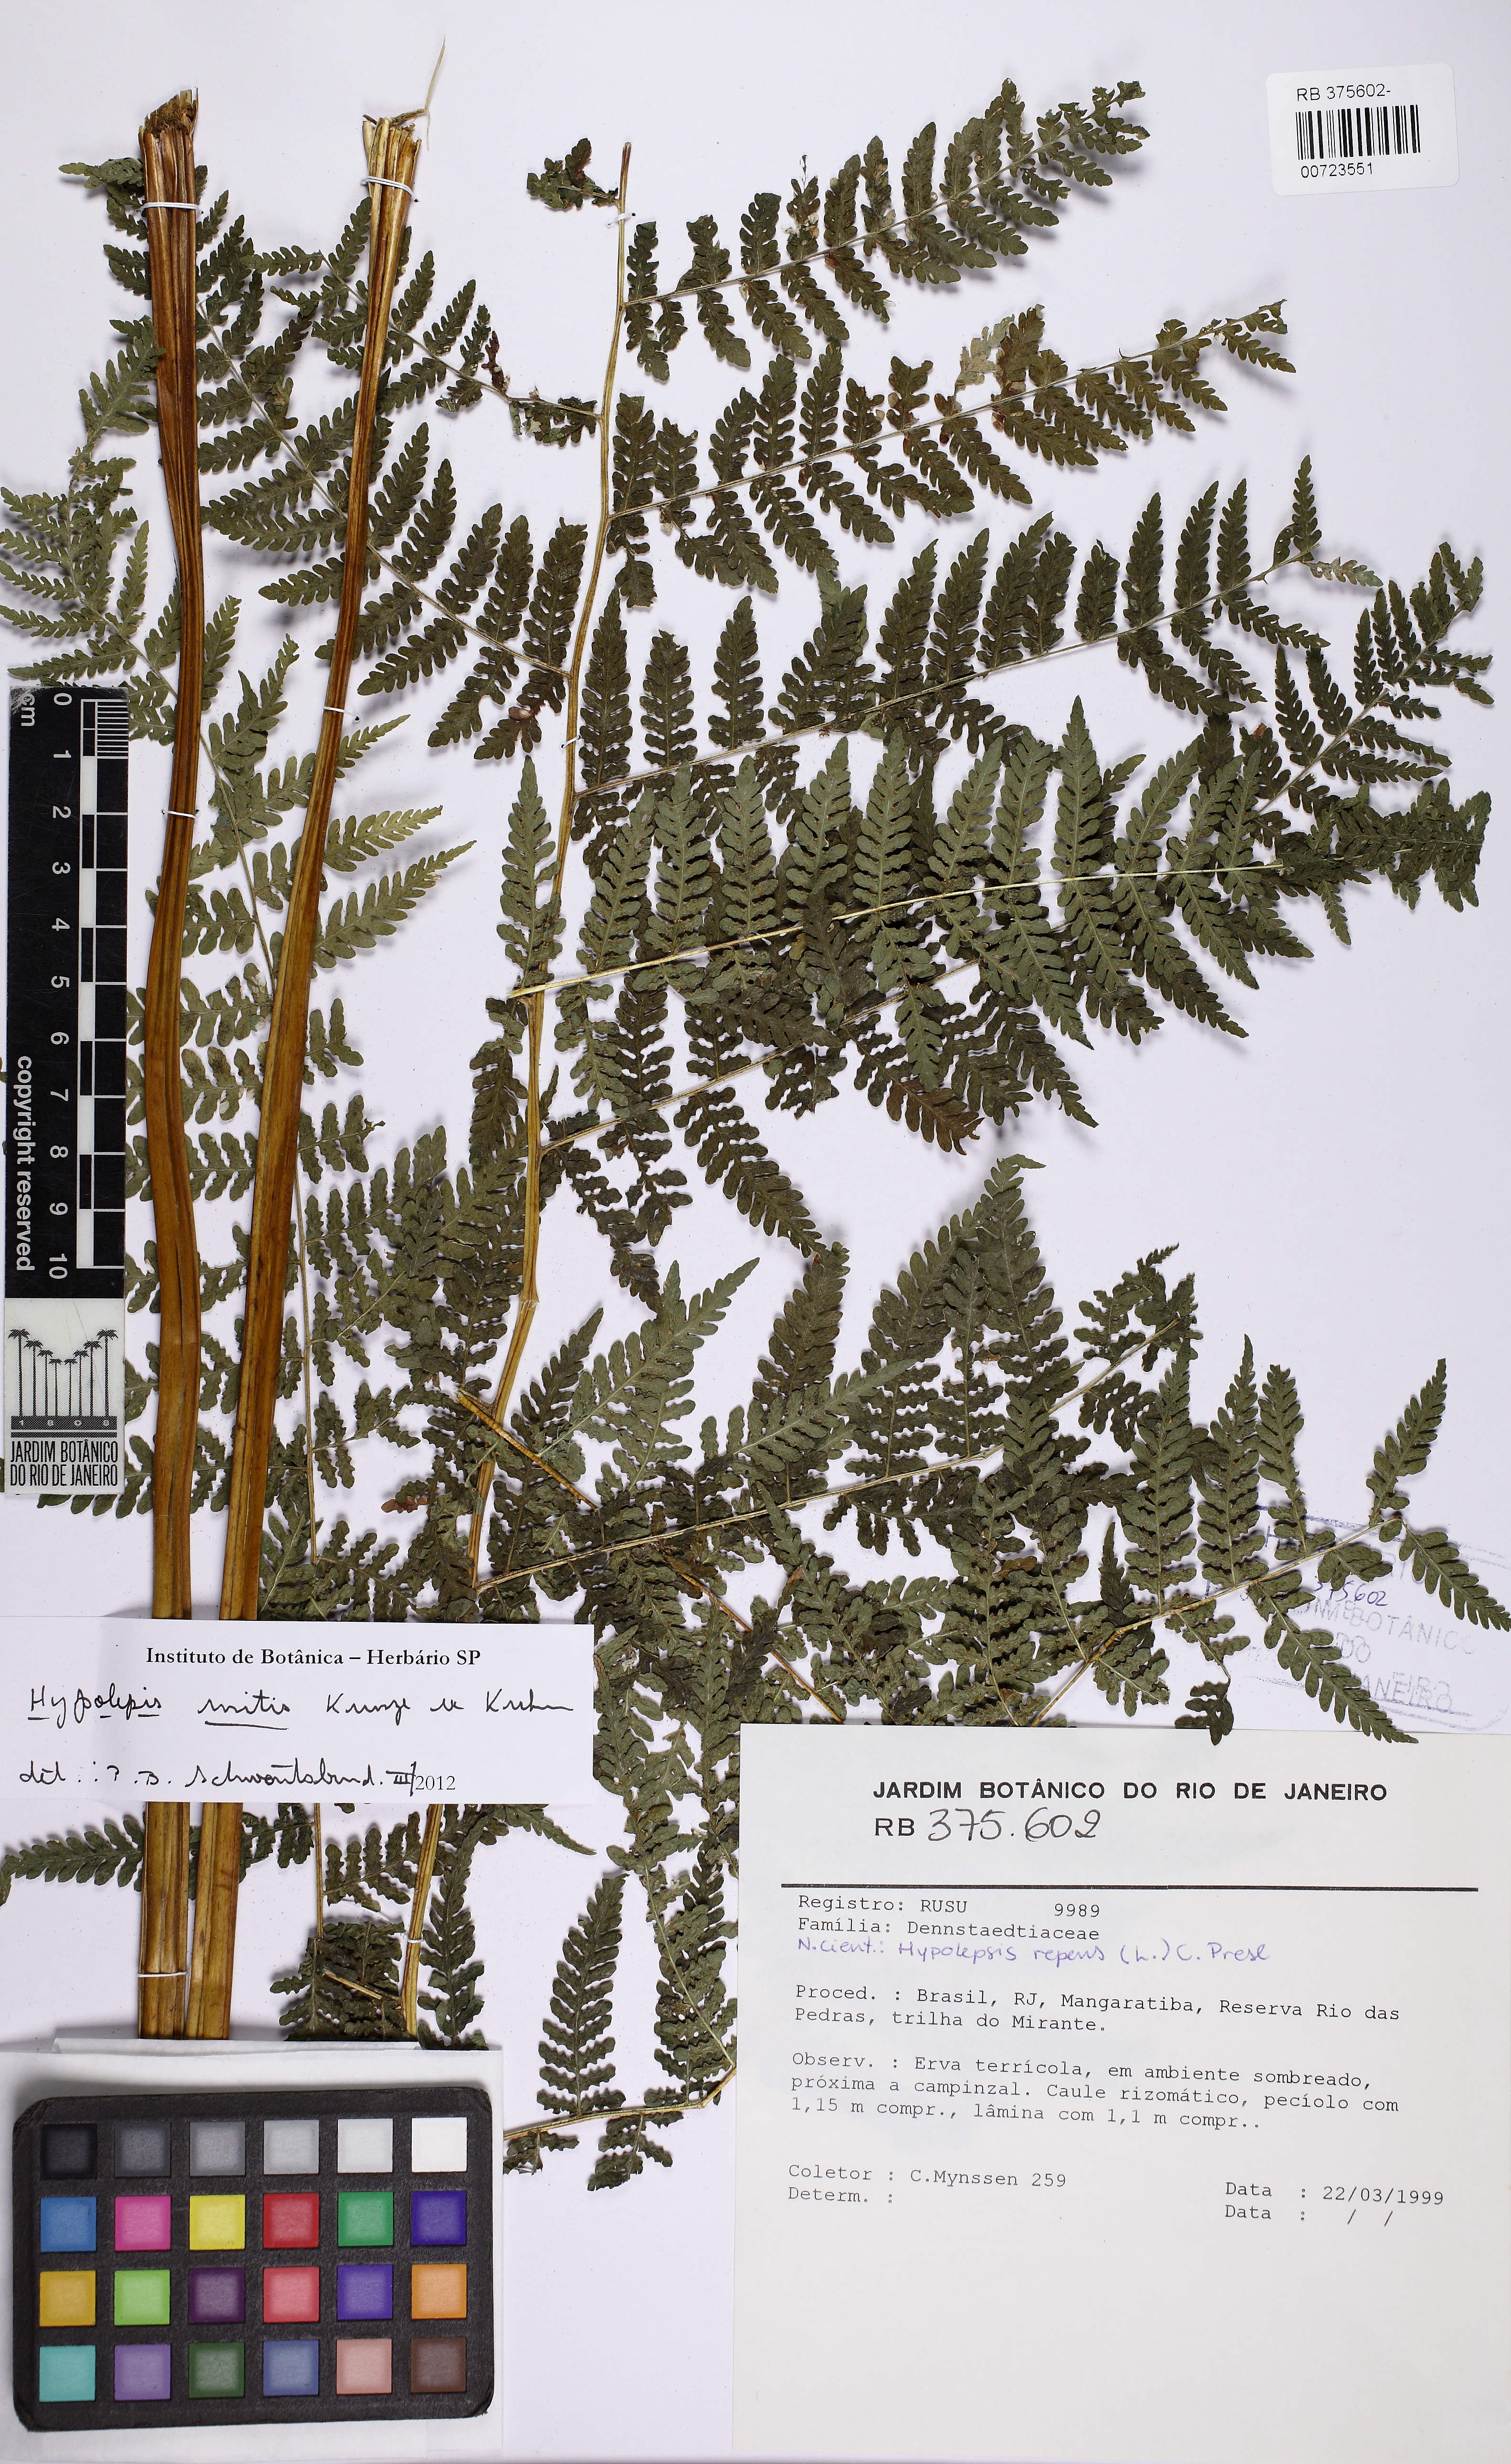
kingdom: Plantae
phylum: Tracheophyta
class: Polypodiopsida
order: Polypodiales
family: Dennstaedtiaceae
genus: Hypolepis
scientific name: Hypolepis repens
